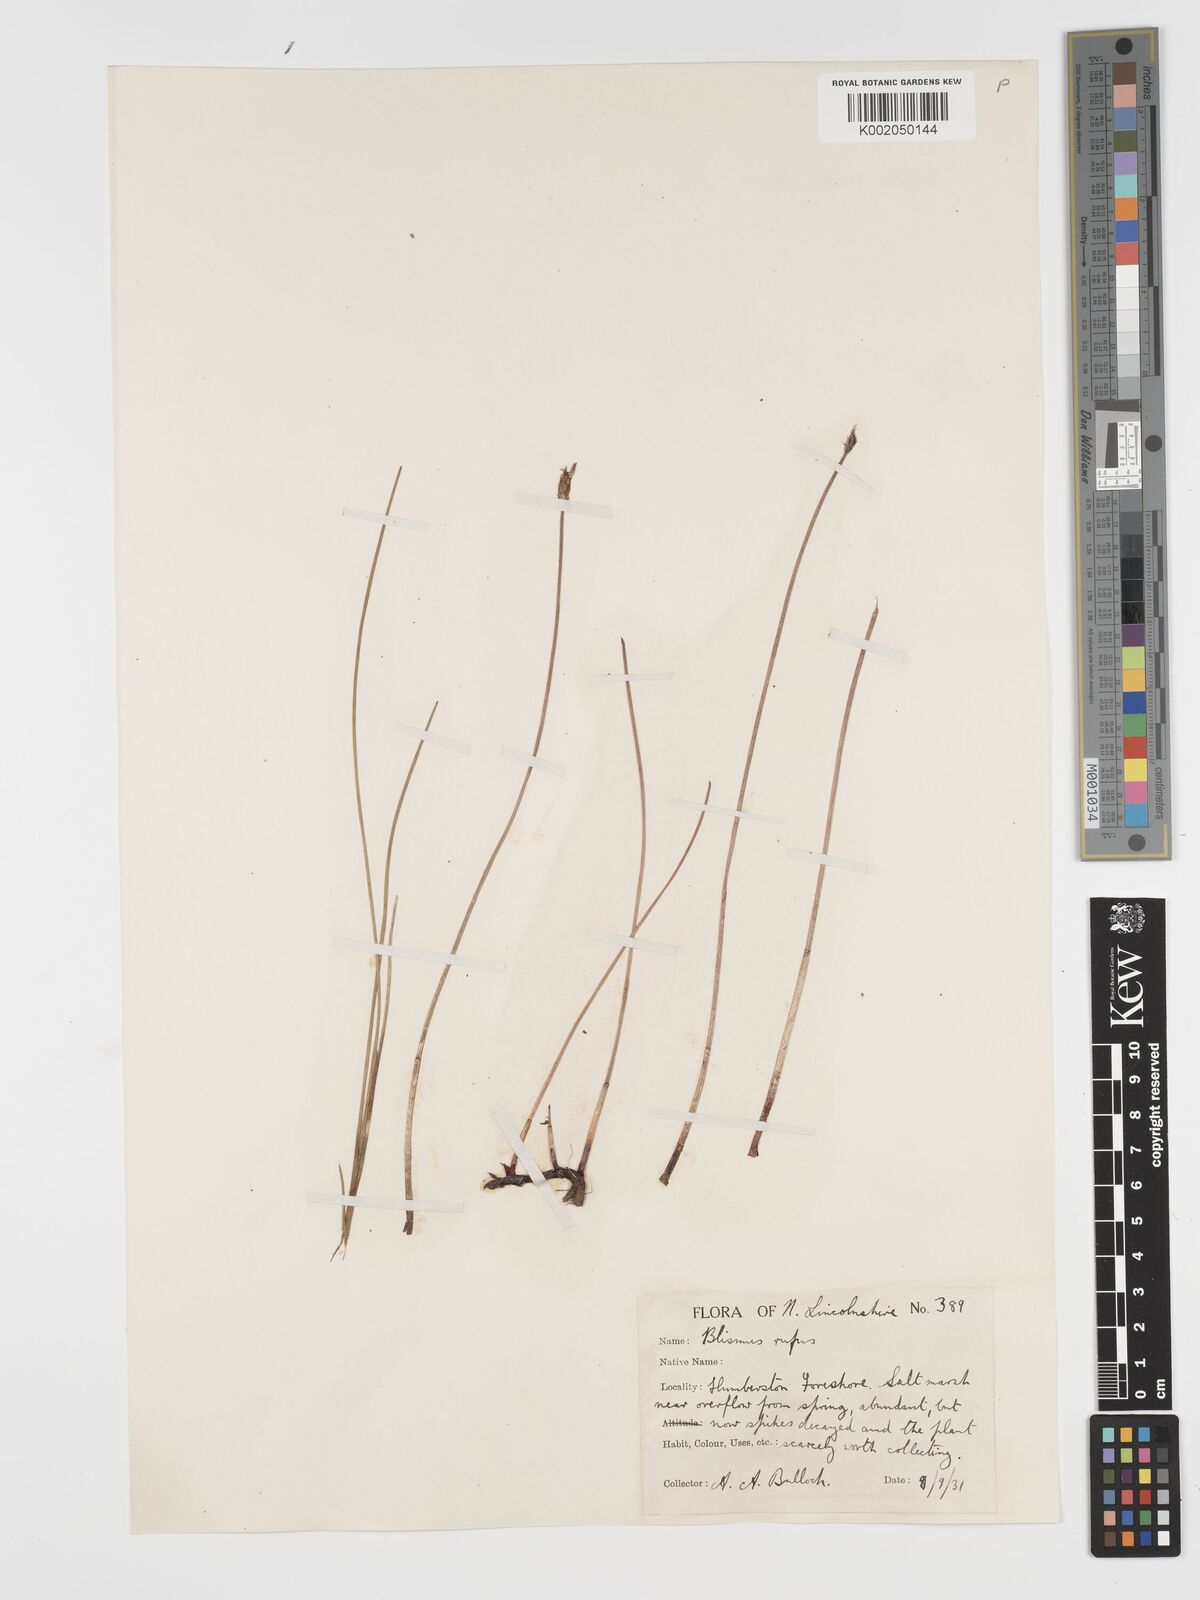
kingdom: Plantae
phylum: Tracheophyta
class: Liliopsida
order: Poales
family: Cyperaceae
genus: Blysmus
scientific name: Blysmus rufus
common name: Saltmarsh flat-sedge
